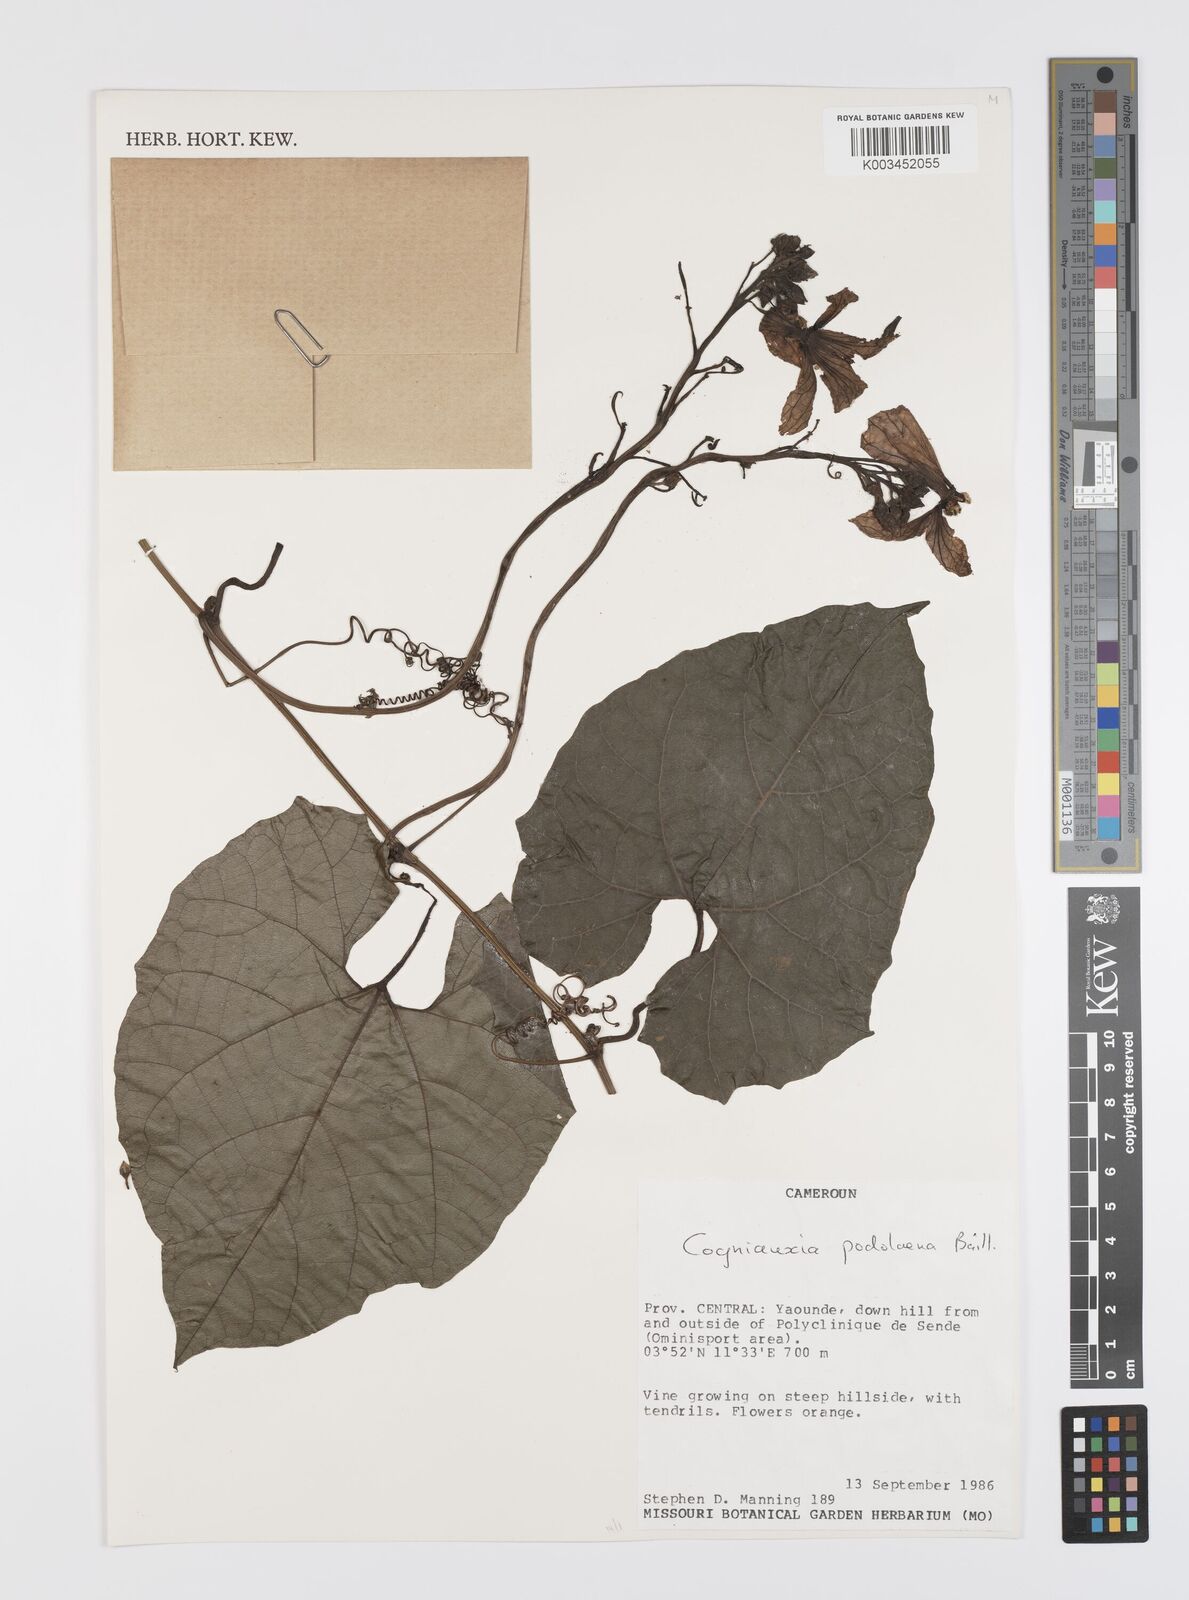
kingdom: Plantae
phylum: Tracheophyta
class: Magnoliopsida
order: Cucurbitales
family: Cucurbitaceae
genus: Cogniauxia
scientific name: Cogniauxia podolaena
